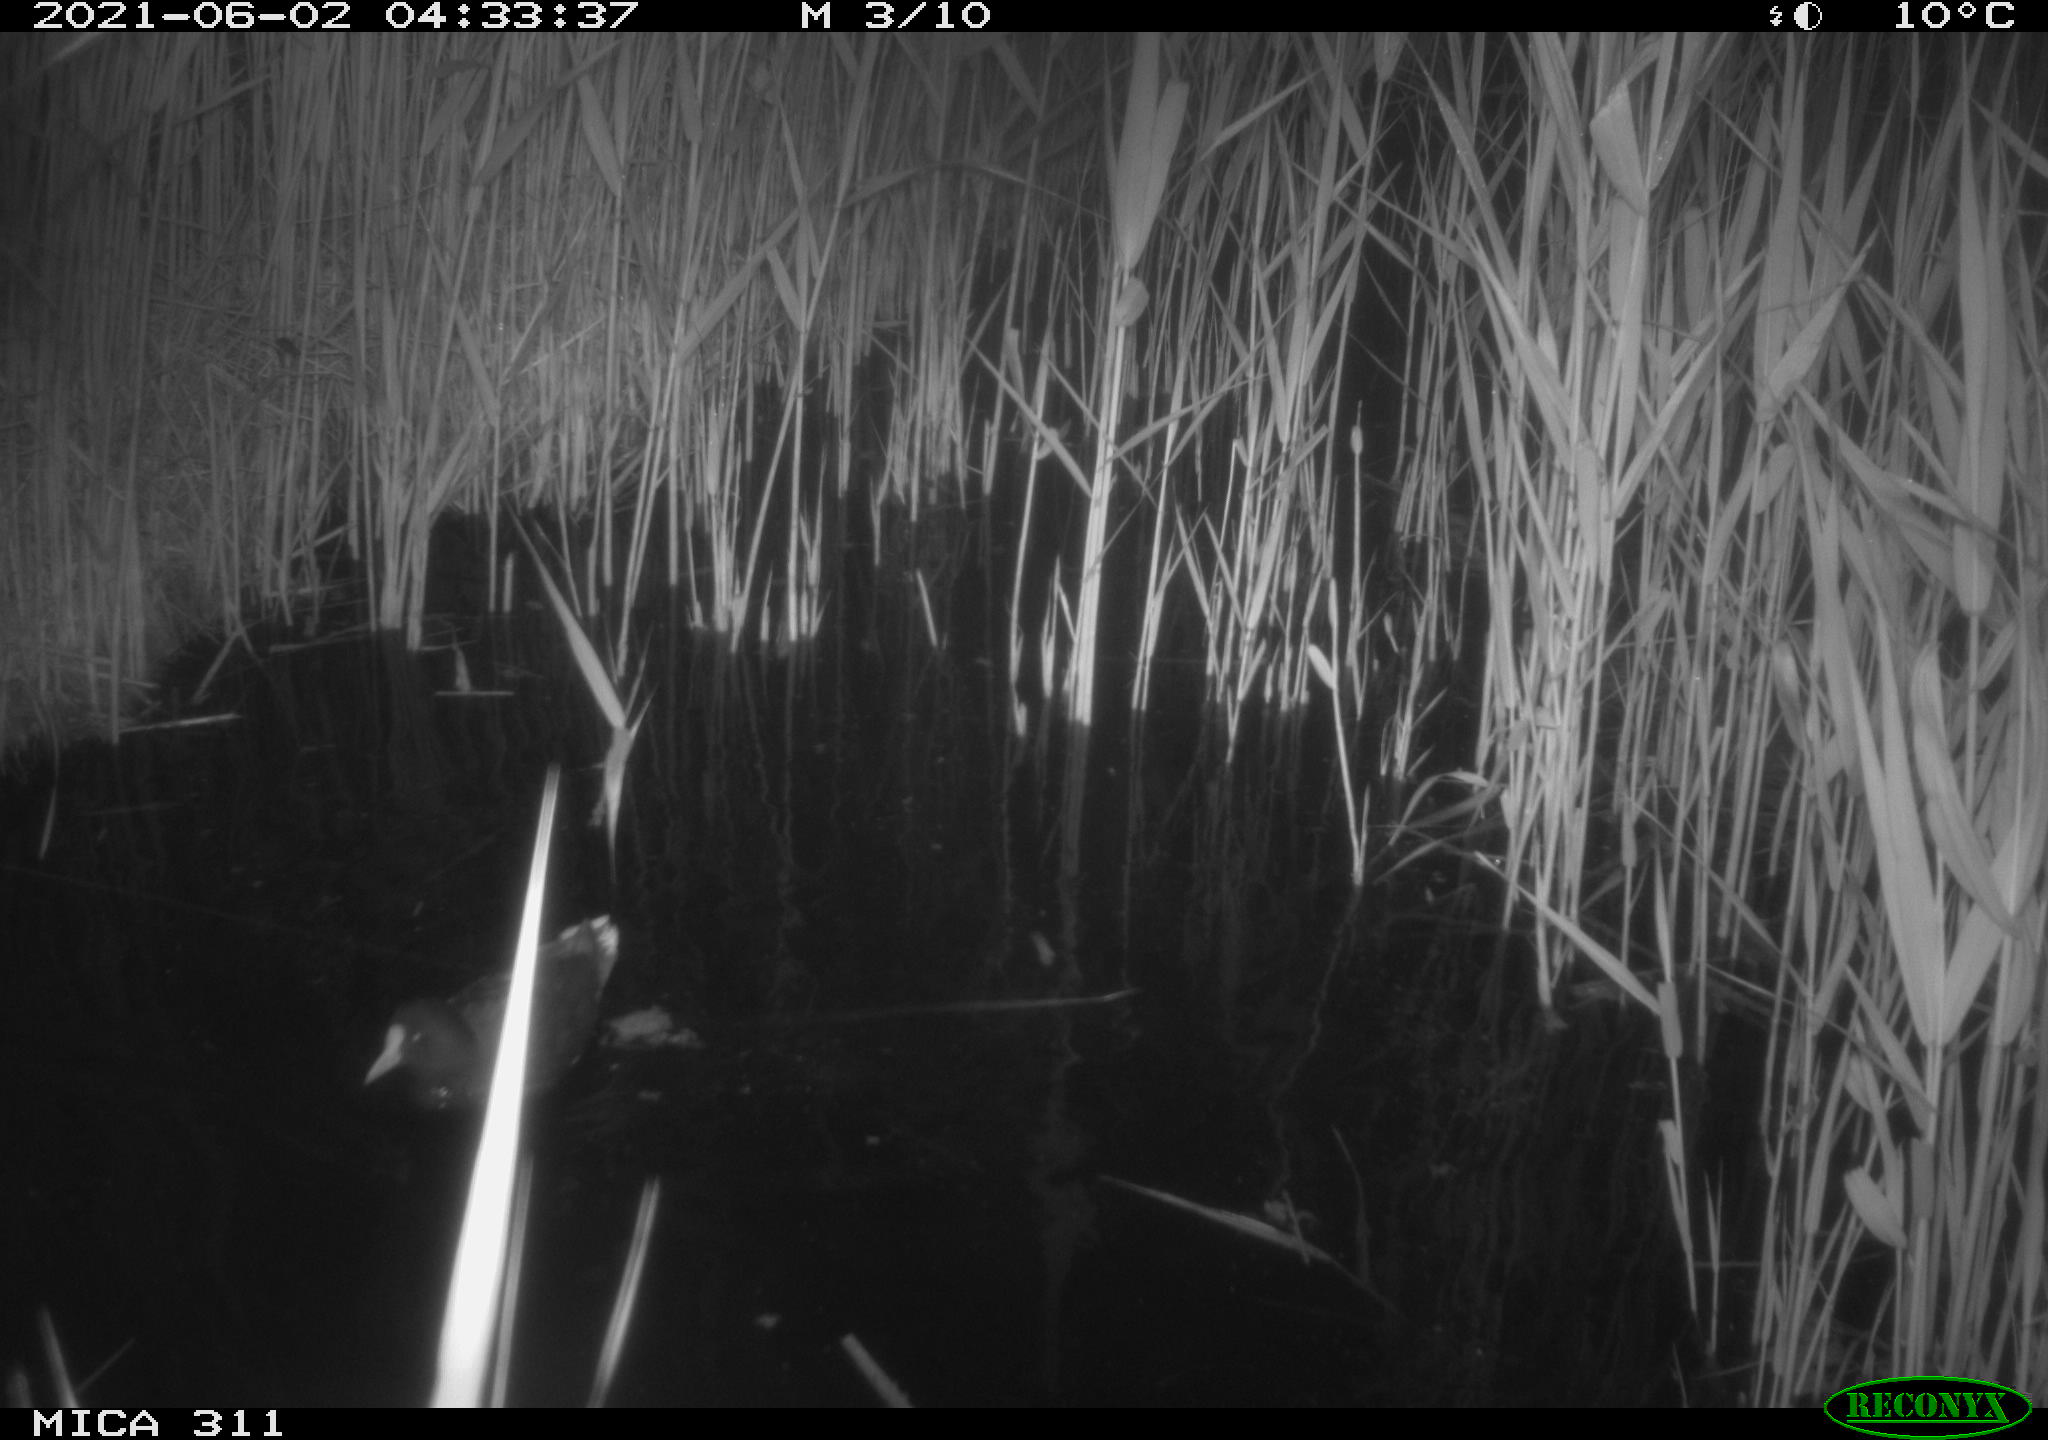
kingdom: Animalia
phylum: Chordata
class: Aves
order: Gruiformes
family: Rallidae
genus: Gallinula
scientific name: Gallinula chloropus
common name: Common moorhen
